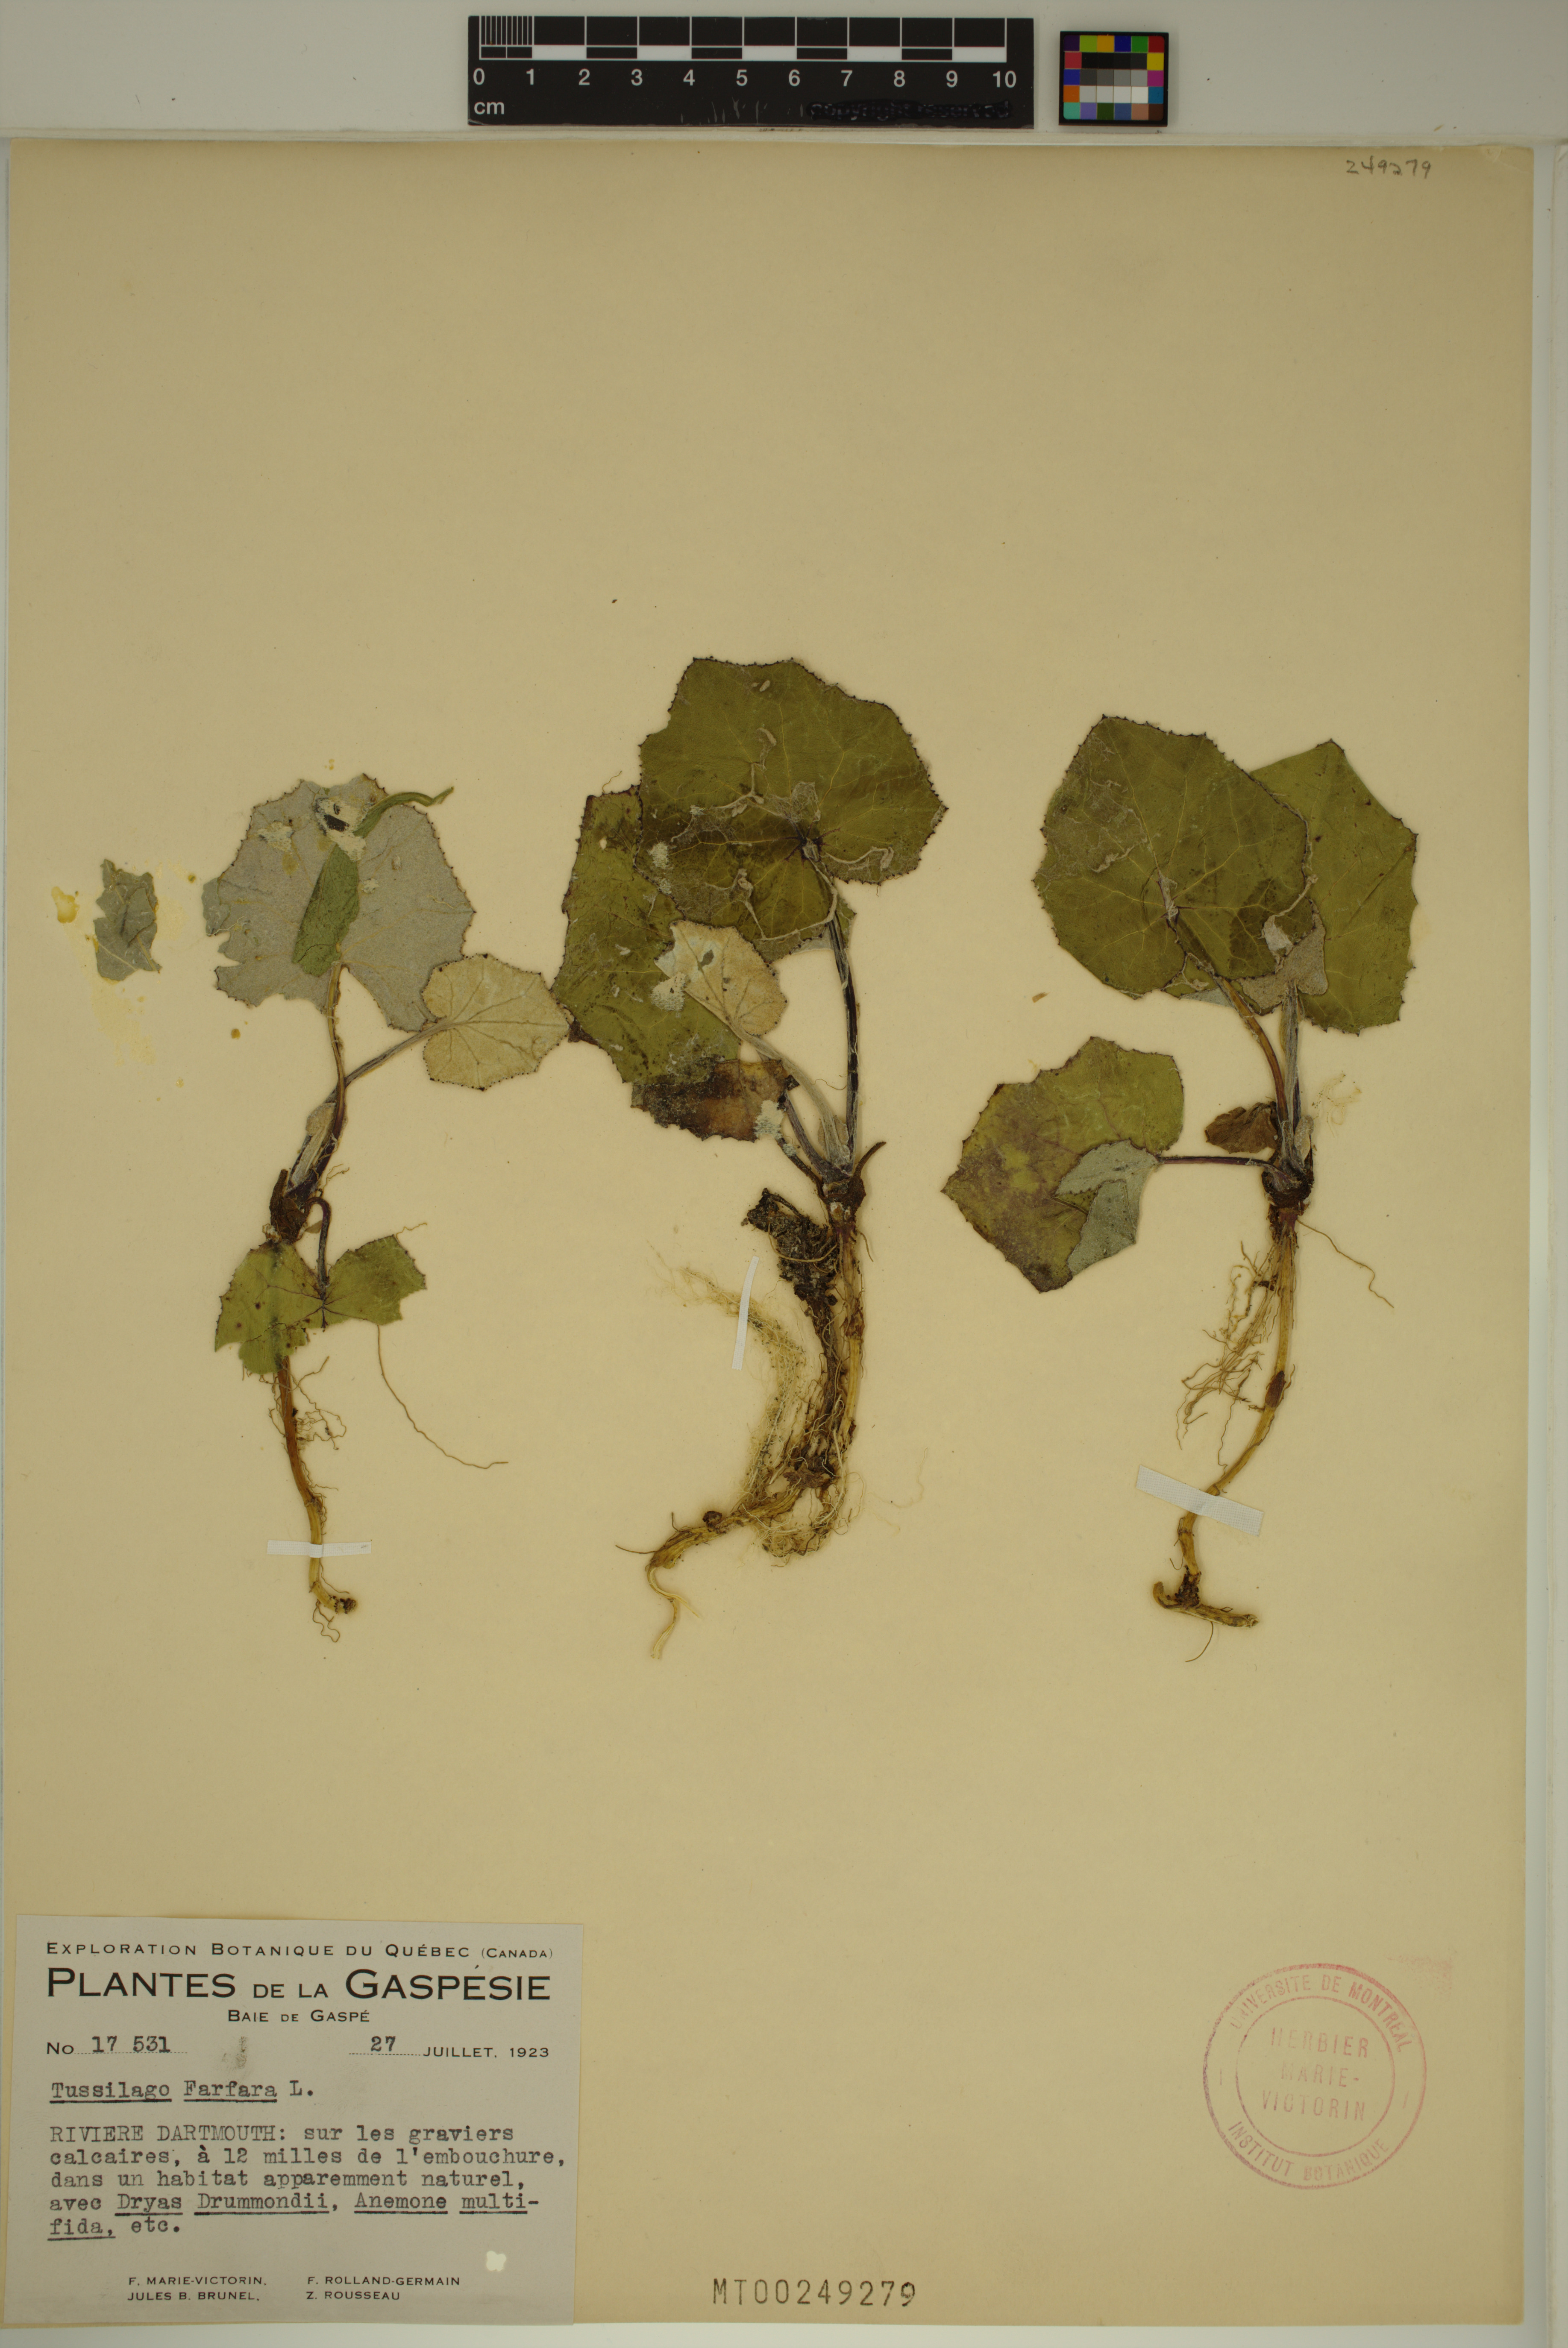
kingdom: Plantae
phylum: Tracheophyta
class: Magnoliopsida
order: Asterales
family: Asteraceae
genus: Tussilago
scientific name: Tussilago farfara
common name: Coltsfoot
